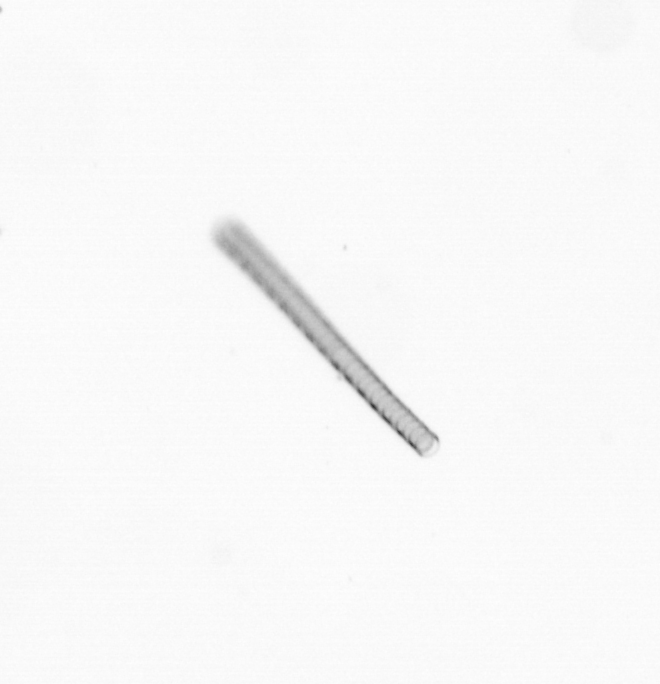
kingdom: Chromista
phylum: Ochrophyta
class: Bacillariophyceae
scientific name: Bacillariophyceae
